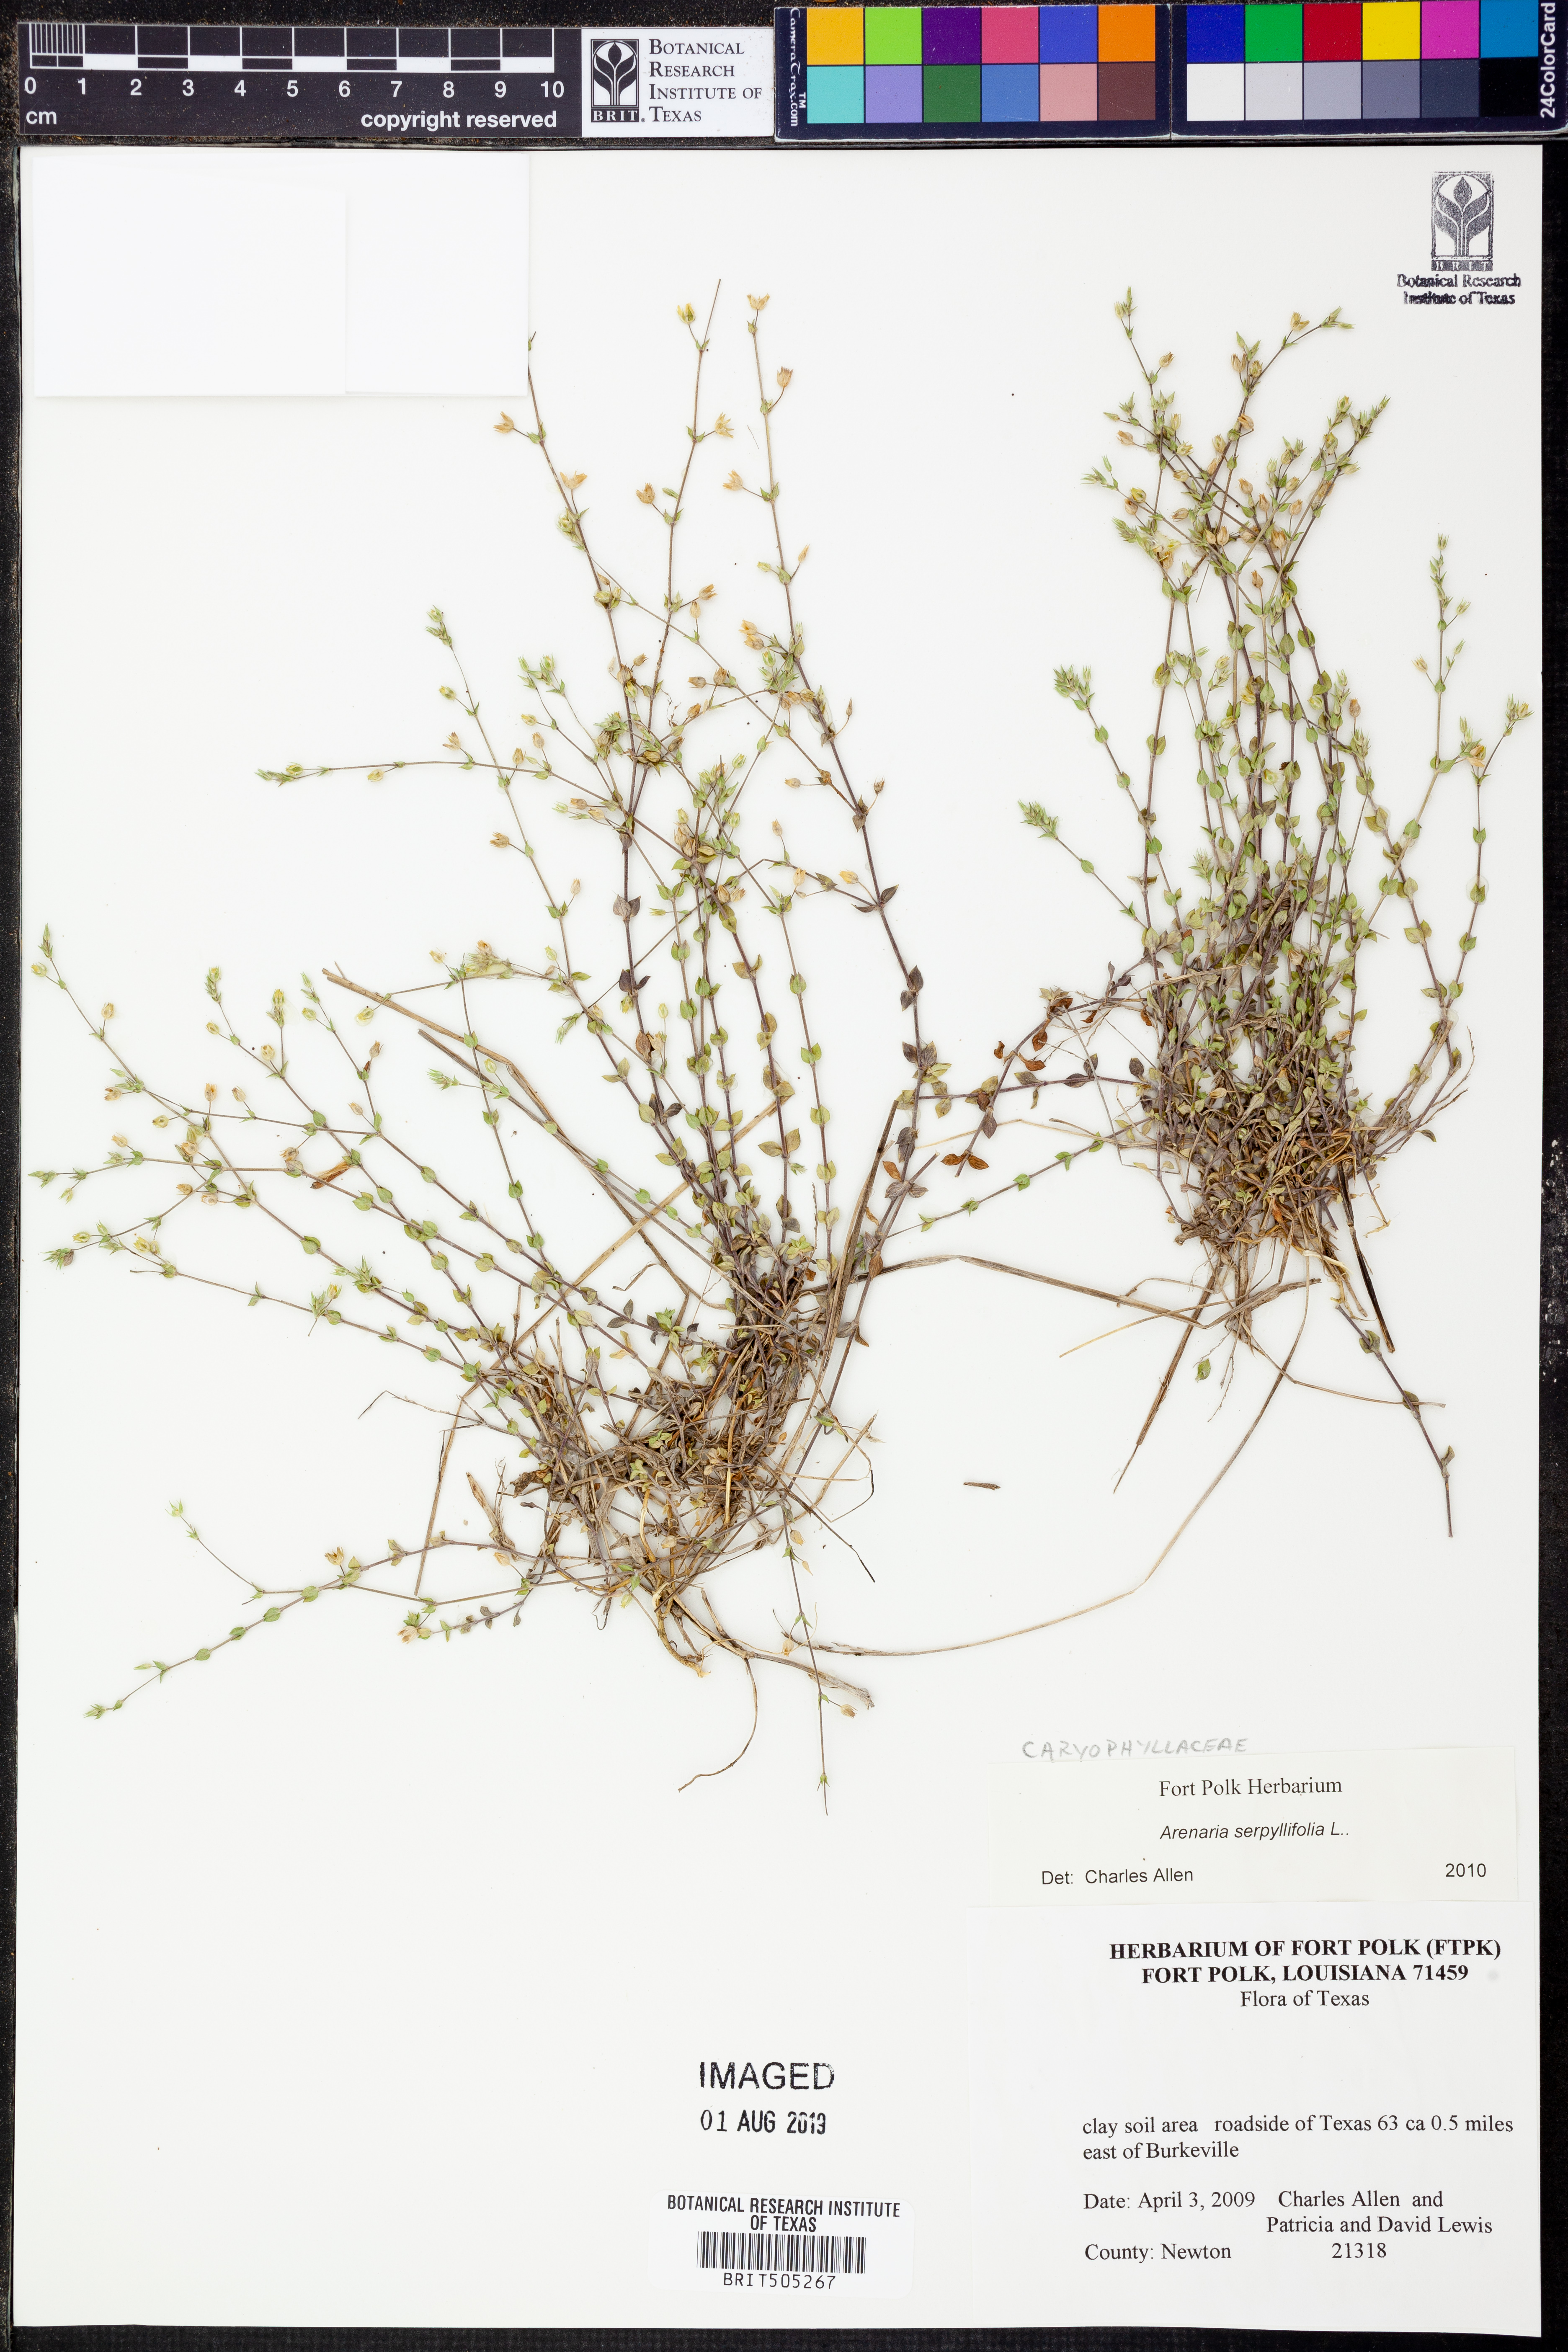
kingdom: Plantae
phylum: Tracheophyta
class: Magnoliopsida
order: Caryophyllales
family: Caryophyllaceae
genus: Arenaria
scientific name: Arenaria serpyllifolia
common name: Thyme-leaved sandwort
